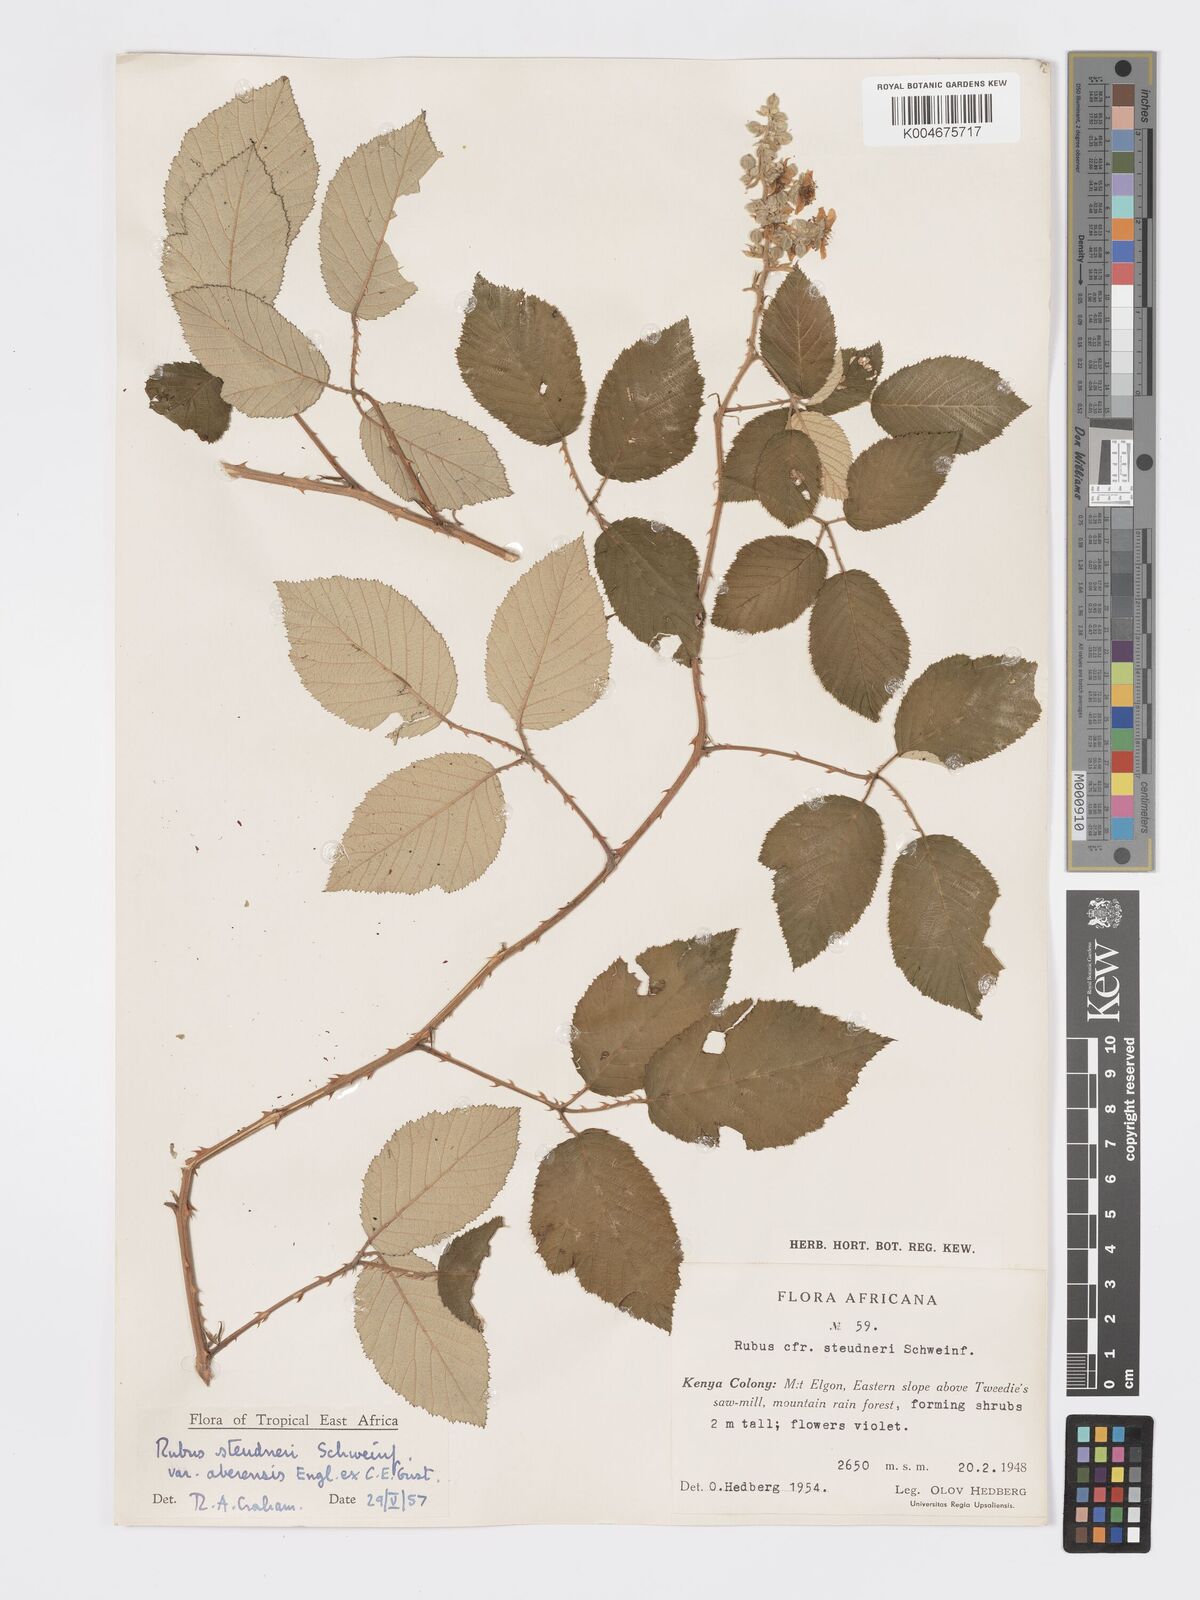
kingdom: Plantae
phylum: Tracheophyta
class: Magnoliopsida
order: Rosales
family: Rosaceae
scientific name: Rosaceae
